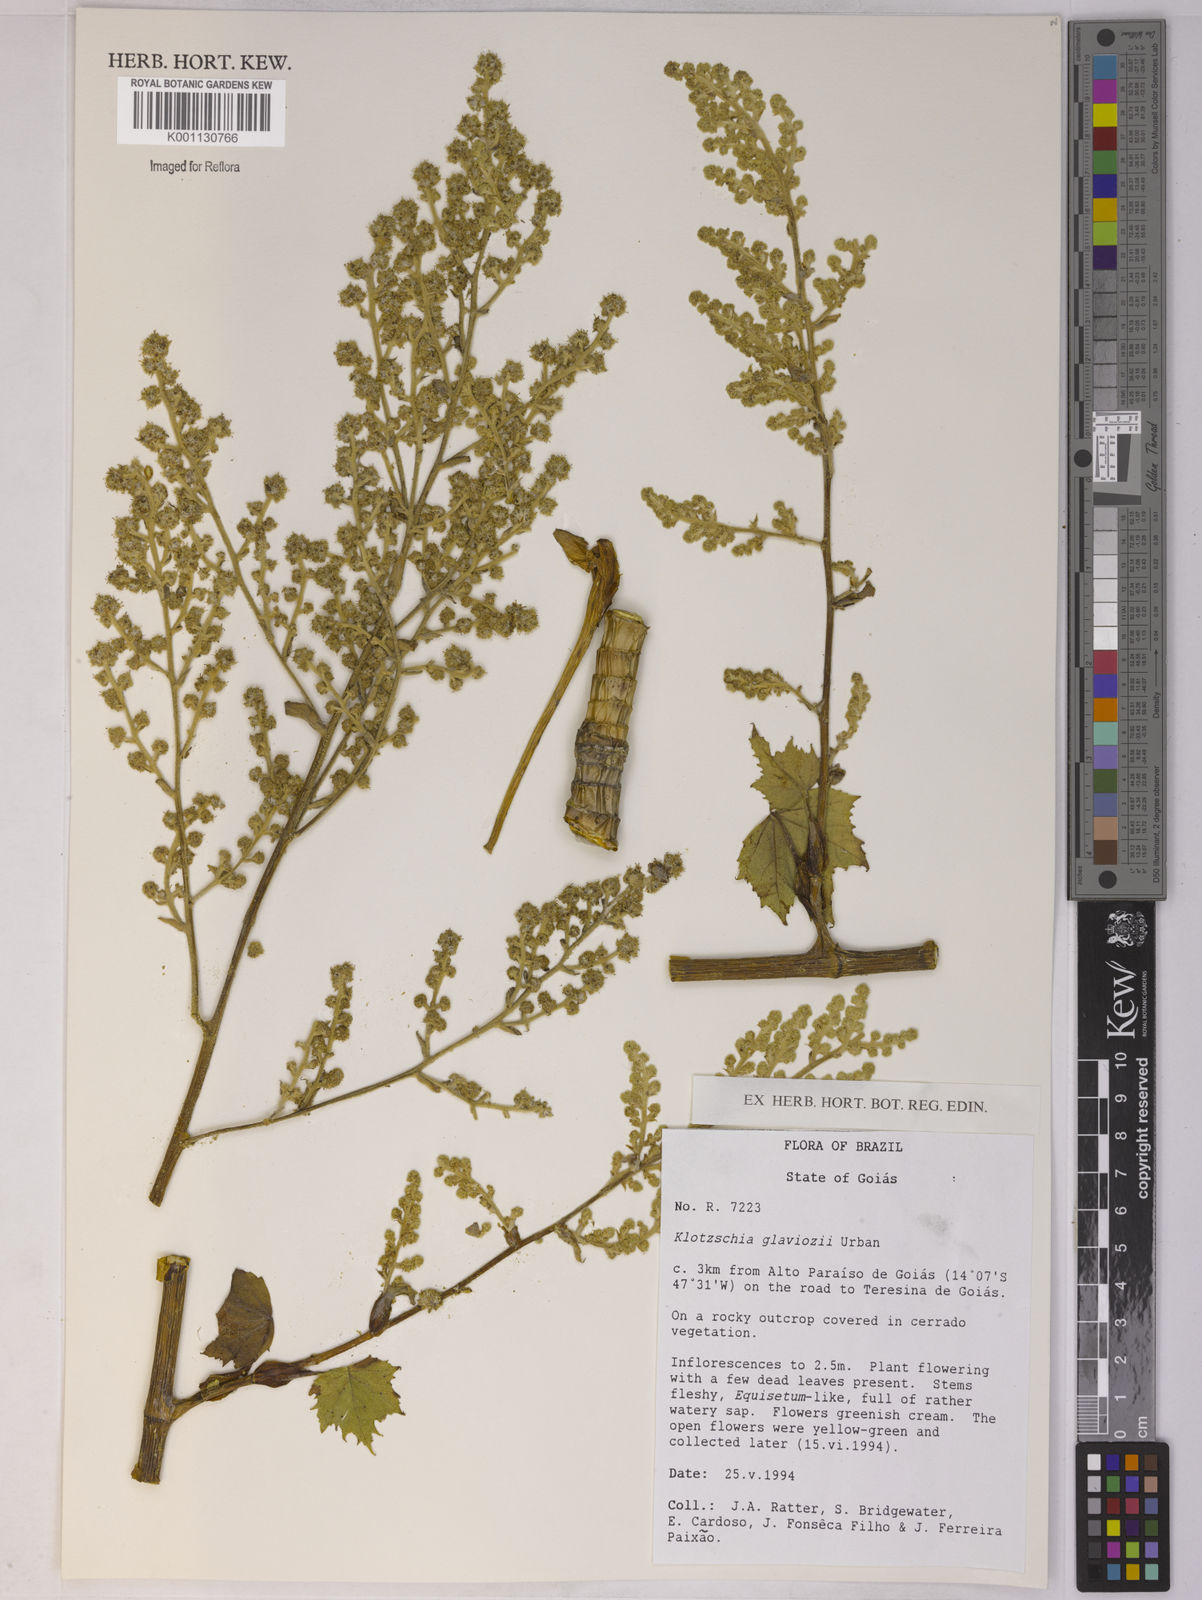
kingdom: Plantae
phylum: Tracheophyta
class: Magnoliopsida
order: Apiales
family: Apiaceae
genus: Klotzschia
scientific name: Klotzschia glaziovii
